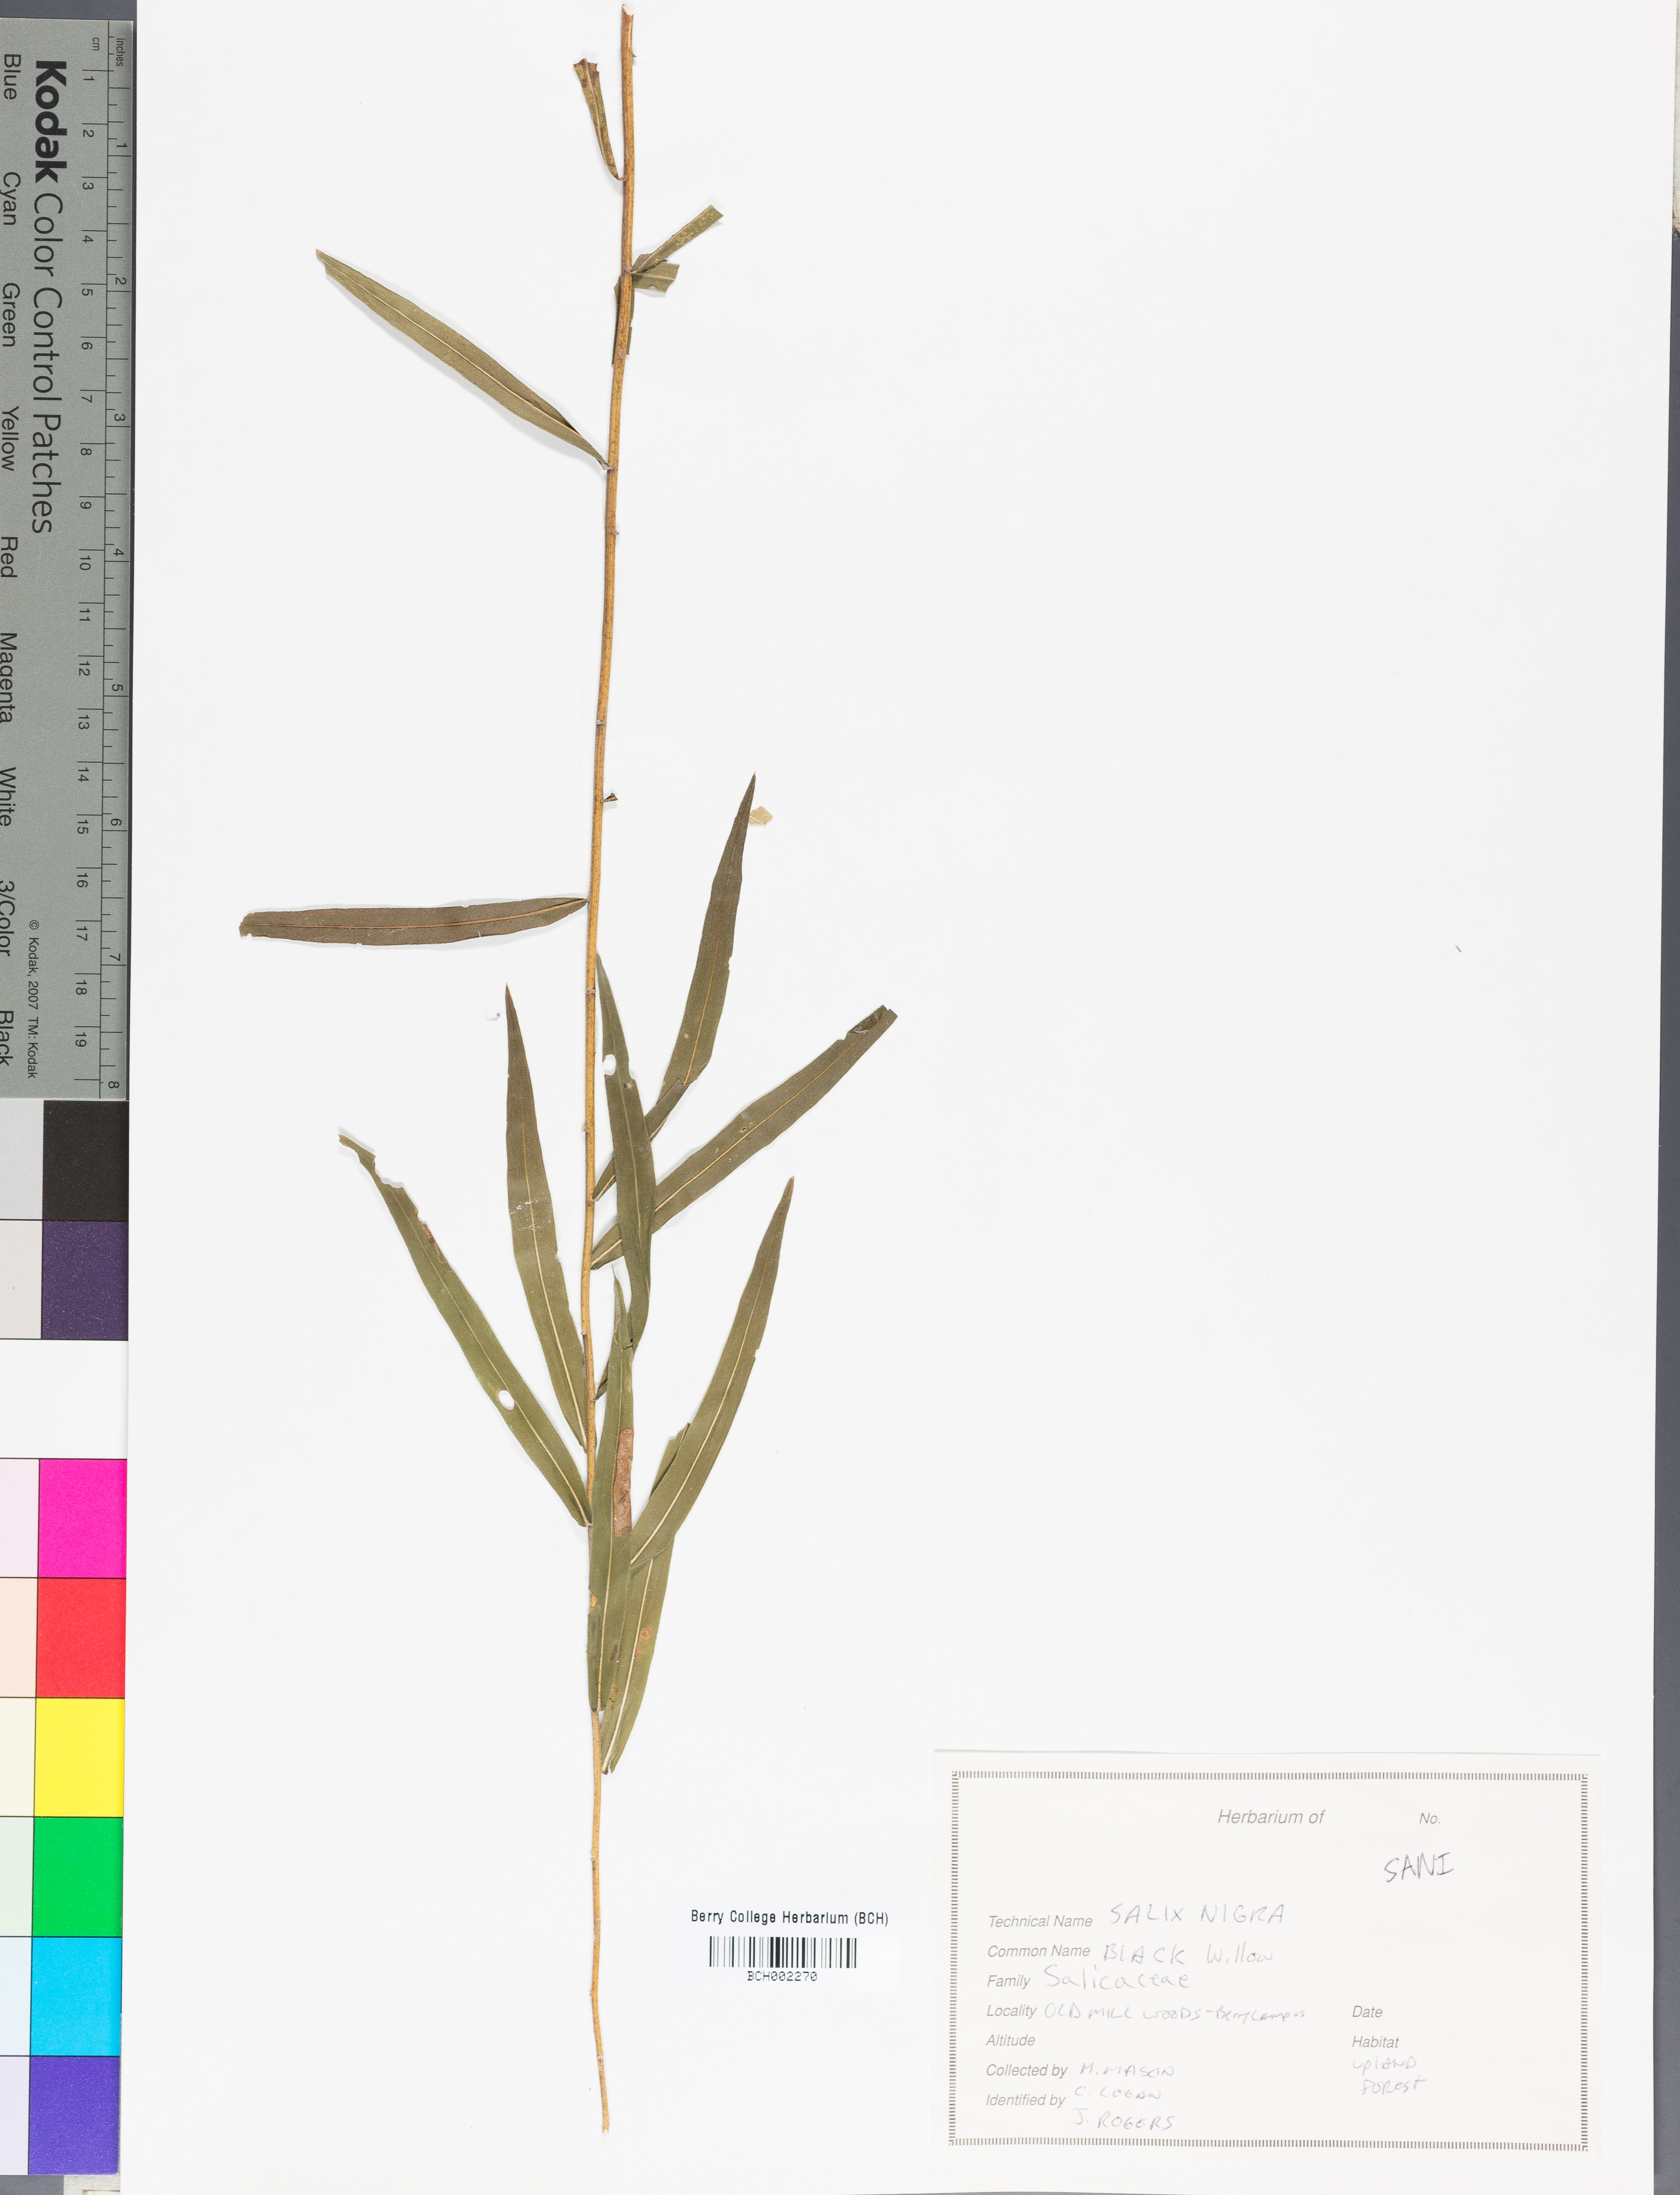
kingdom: Plantae
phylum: Tracheophyta
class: Magnoliopsida
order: Malpighiales
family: Salicaceae
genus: Salix
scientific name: Salix nigra
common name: Black willow
